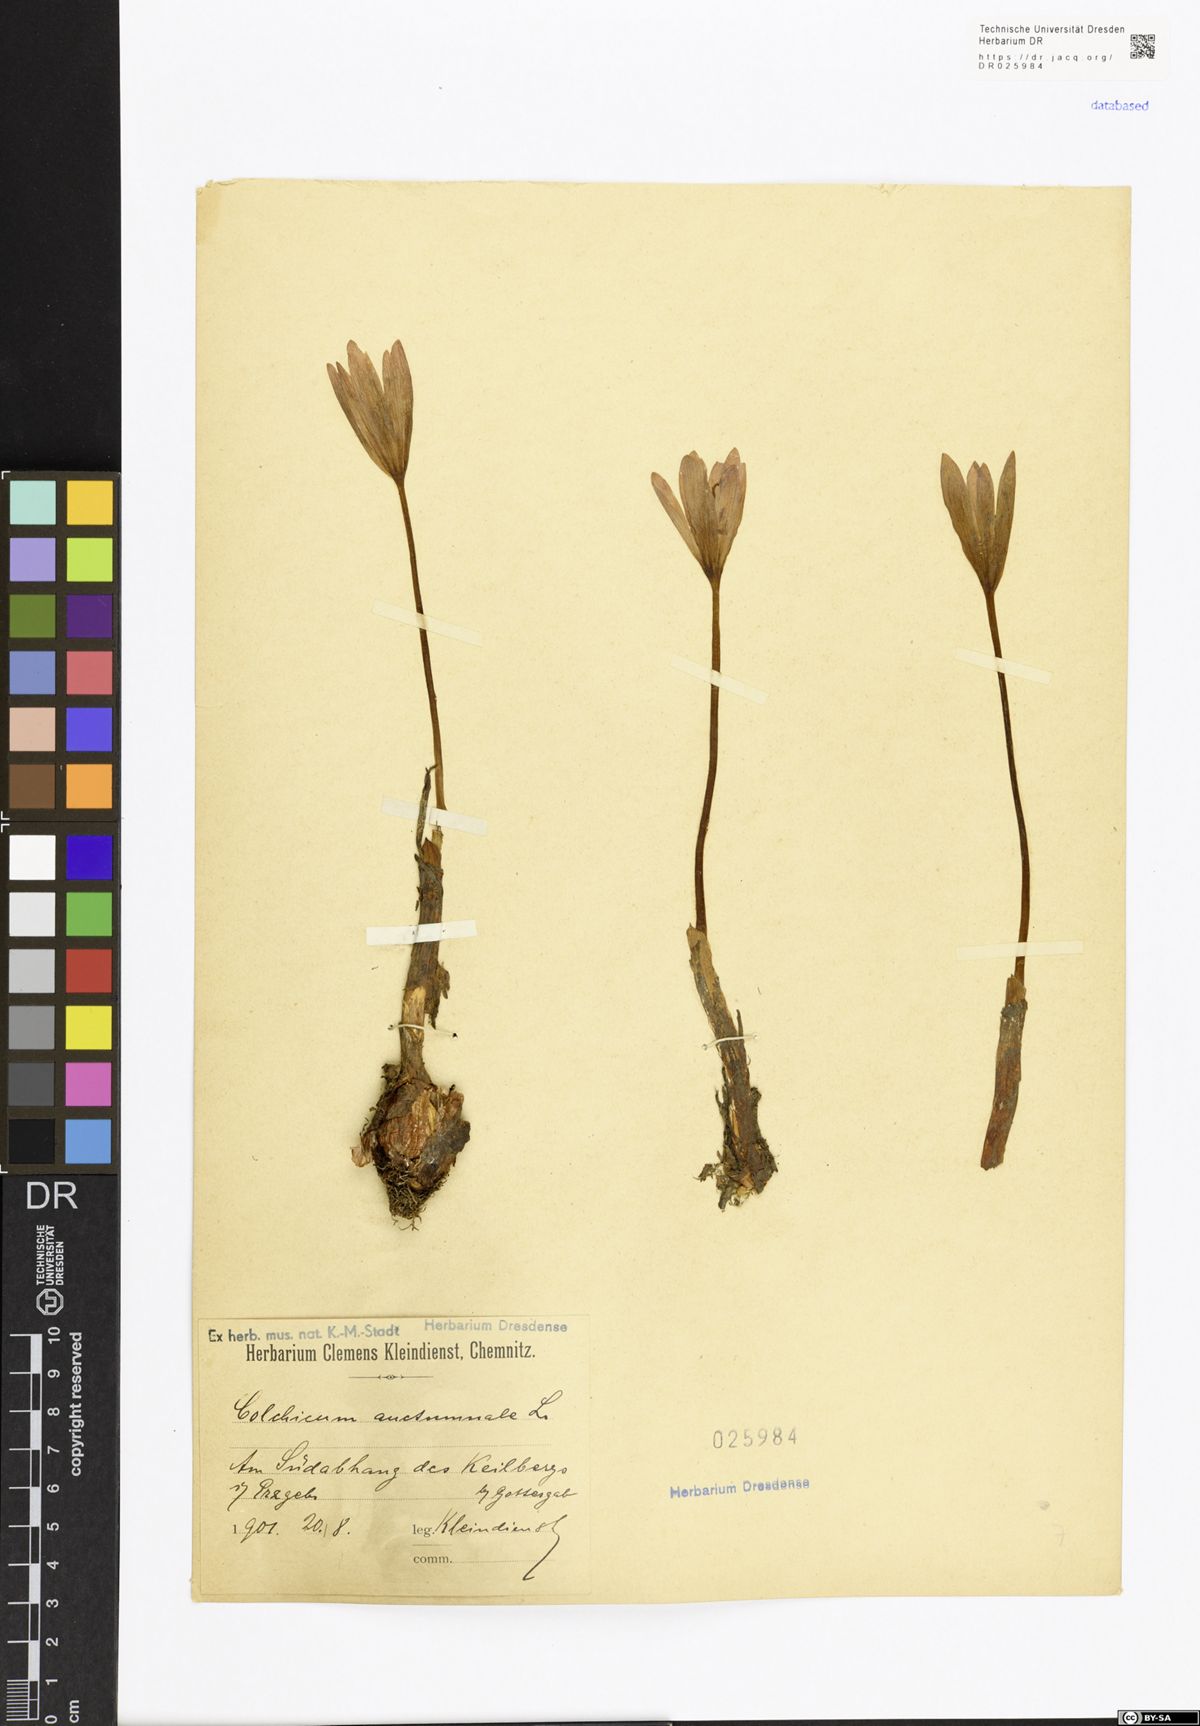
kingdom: Plantae
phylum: Tracheophyta
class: Liliopsida
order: Liliales
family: Colchicaceae
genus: Colchicum
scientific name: Colchicum autumnale
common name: Autumn crocus
